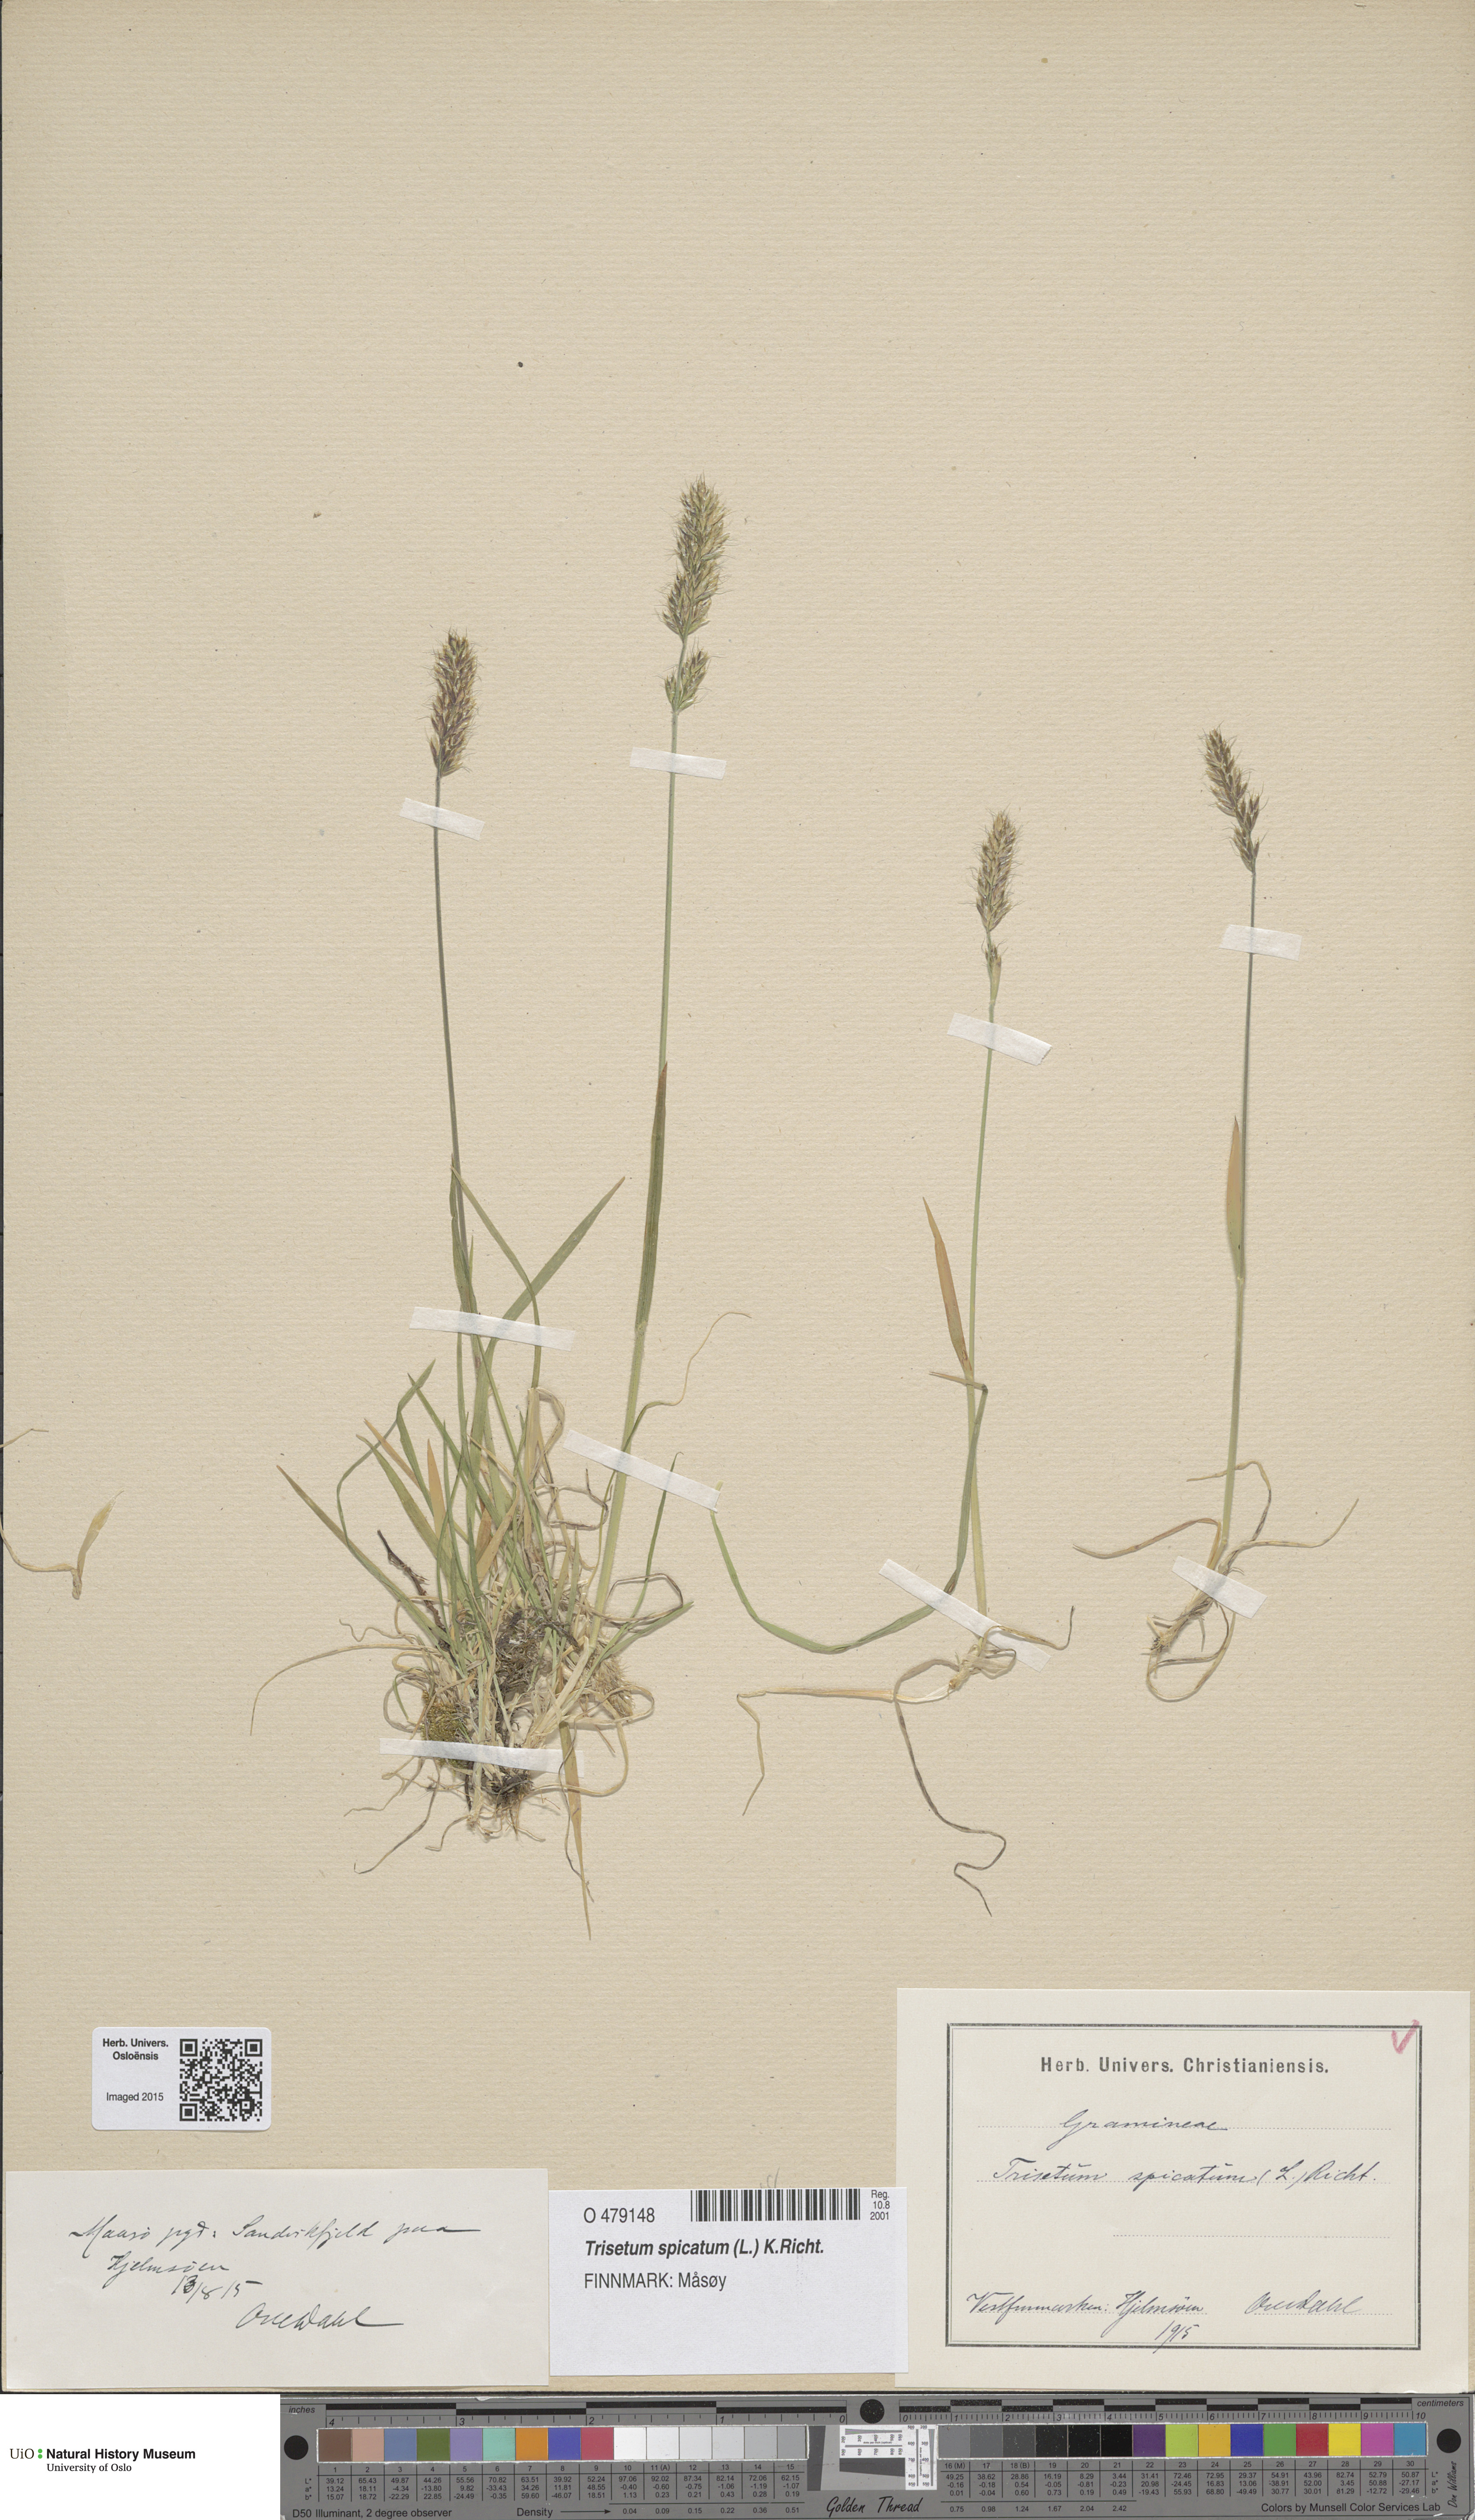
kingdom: Plantae
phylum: Tracheophyta
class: Liliopsida
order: Poales
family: Poaceae
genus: Koeleria
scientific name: Koeleria spicata
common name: Mountain trisetum
